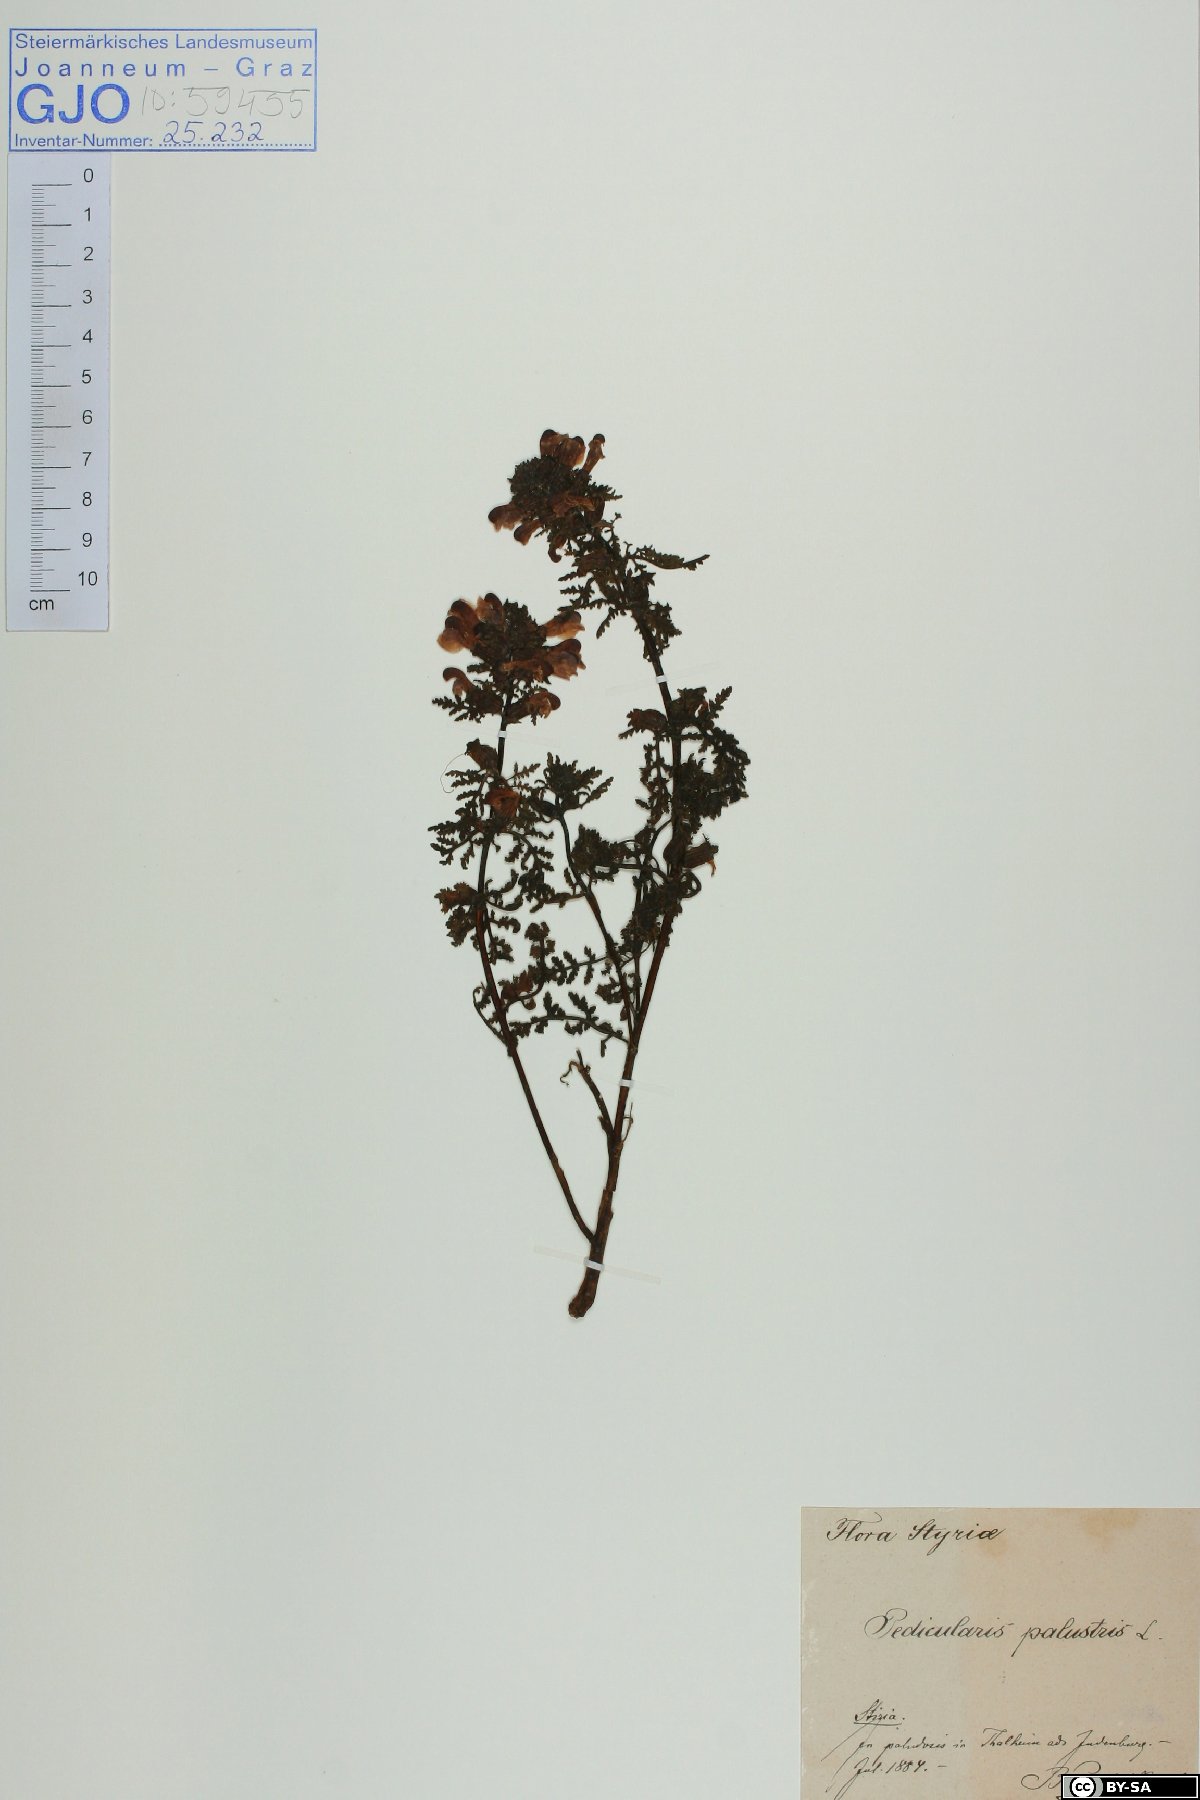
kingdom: Plantae
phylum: Tracheophyta
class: Magnoliopsida
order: Lamiales
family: Orobanchaceae
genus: Pedicularis
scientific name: Pedicularis palustris
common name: Marsh lousewort
